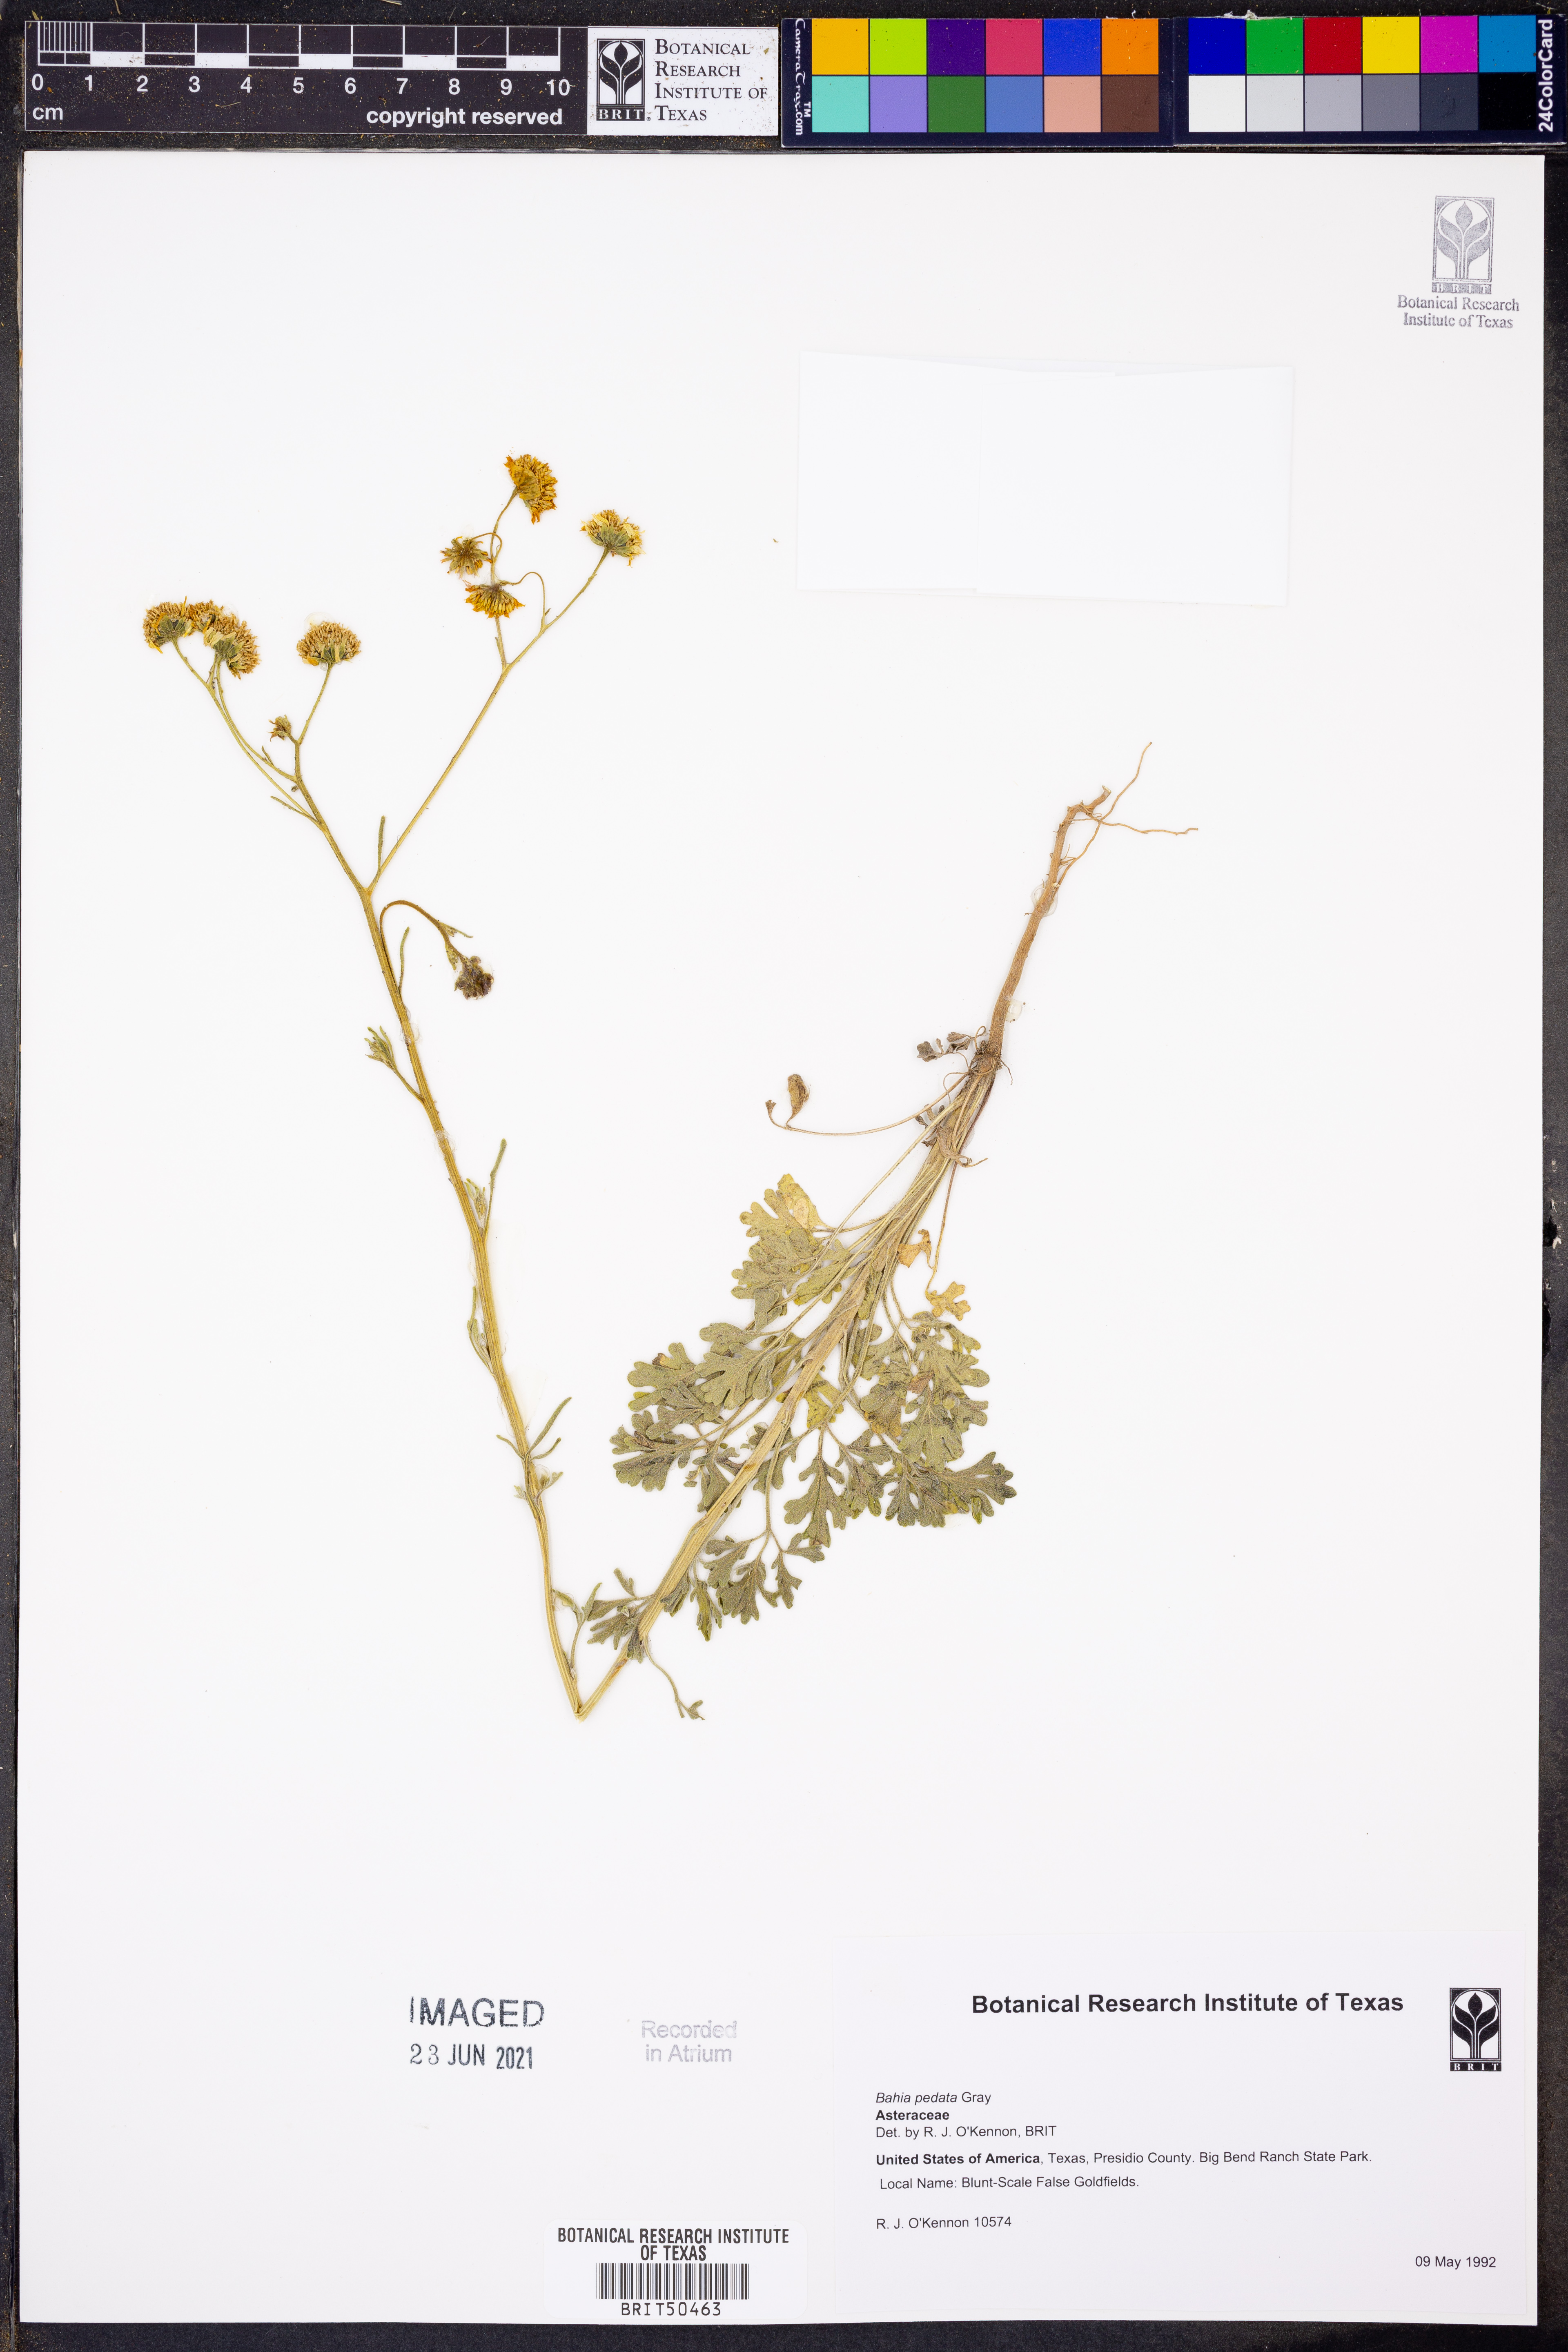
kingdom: Plantae
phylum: Tracheophyta
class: Magnoliopsida
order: Asterales
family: Asteraceae
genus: Hymenothrix
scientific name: Hymenothrix pedata
